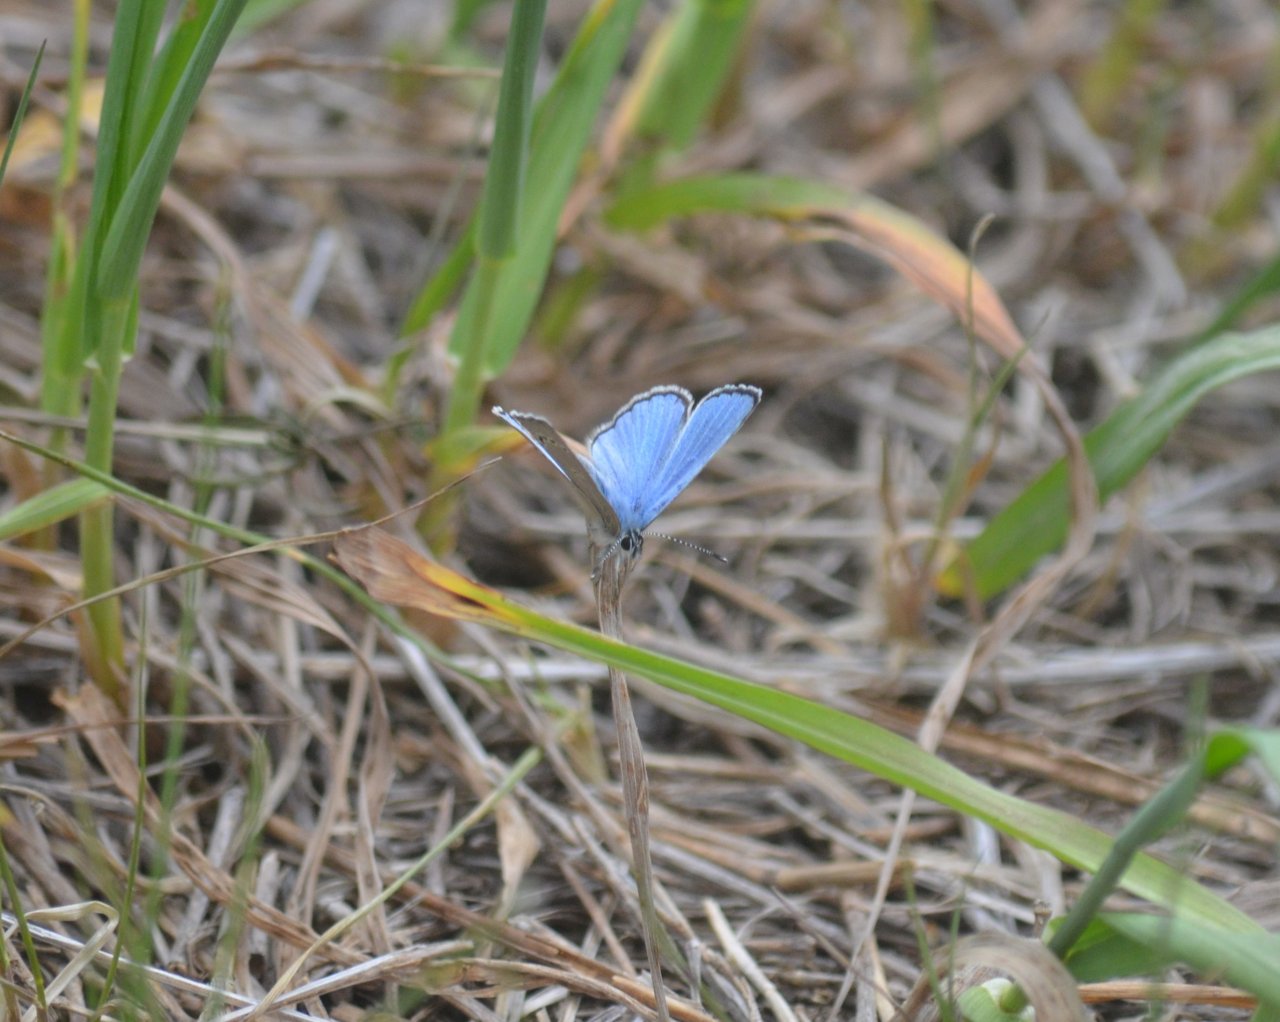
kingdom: Animalia
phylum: Arthropoda
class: Insecta
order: Lepidoptera
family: Lycaenidae
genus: Glaucopsyche
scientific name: Glaucopsyche lygdamus
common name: Silvery Blue
